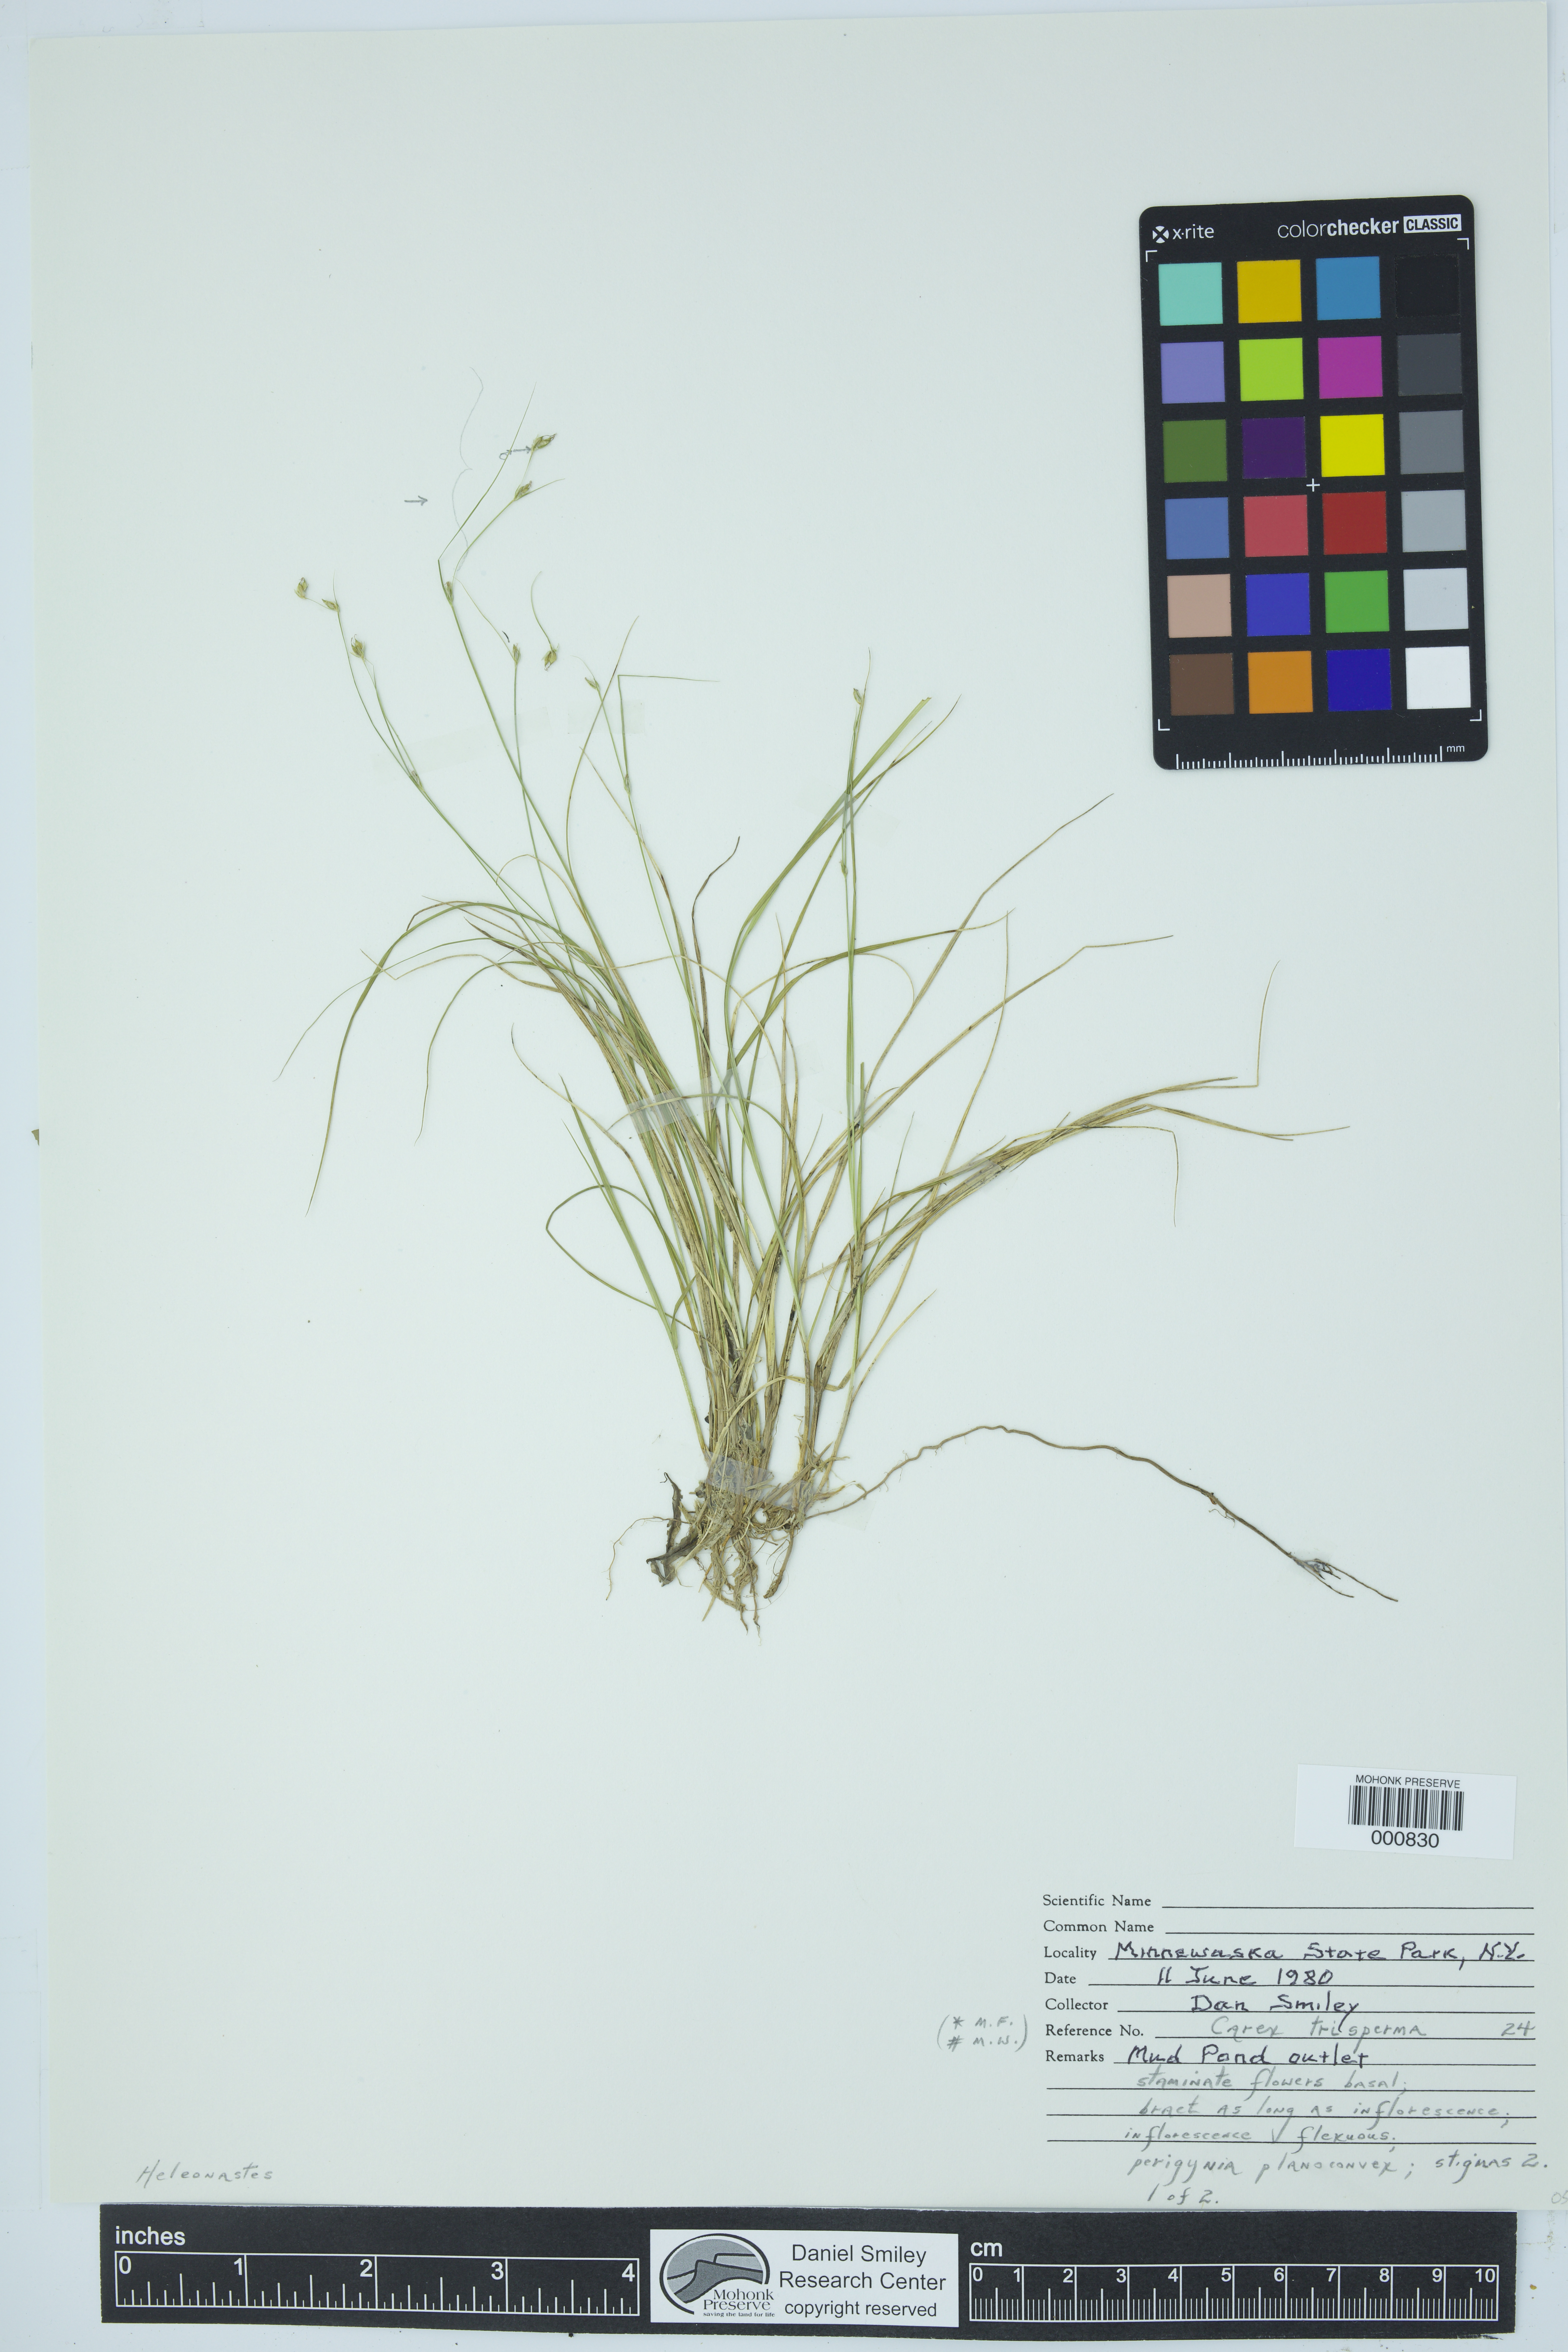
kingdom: Plantae
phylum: Tracheophyta
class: Liliopsida
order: Poales
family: Cyperaceae
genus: Carex
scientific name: Carex trisperma
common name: Three-seeded sedge
